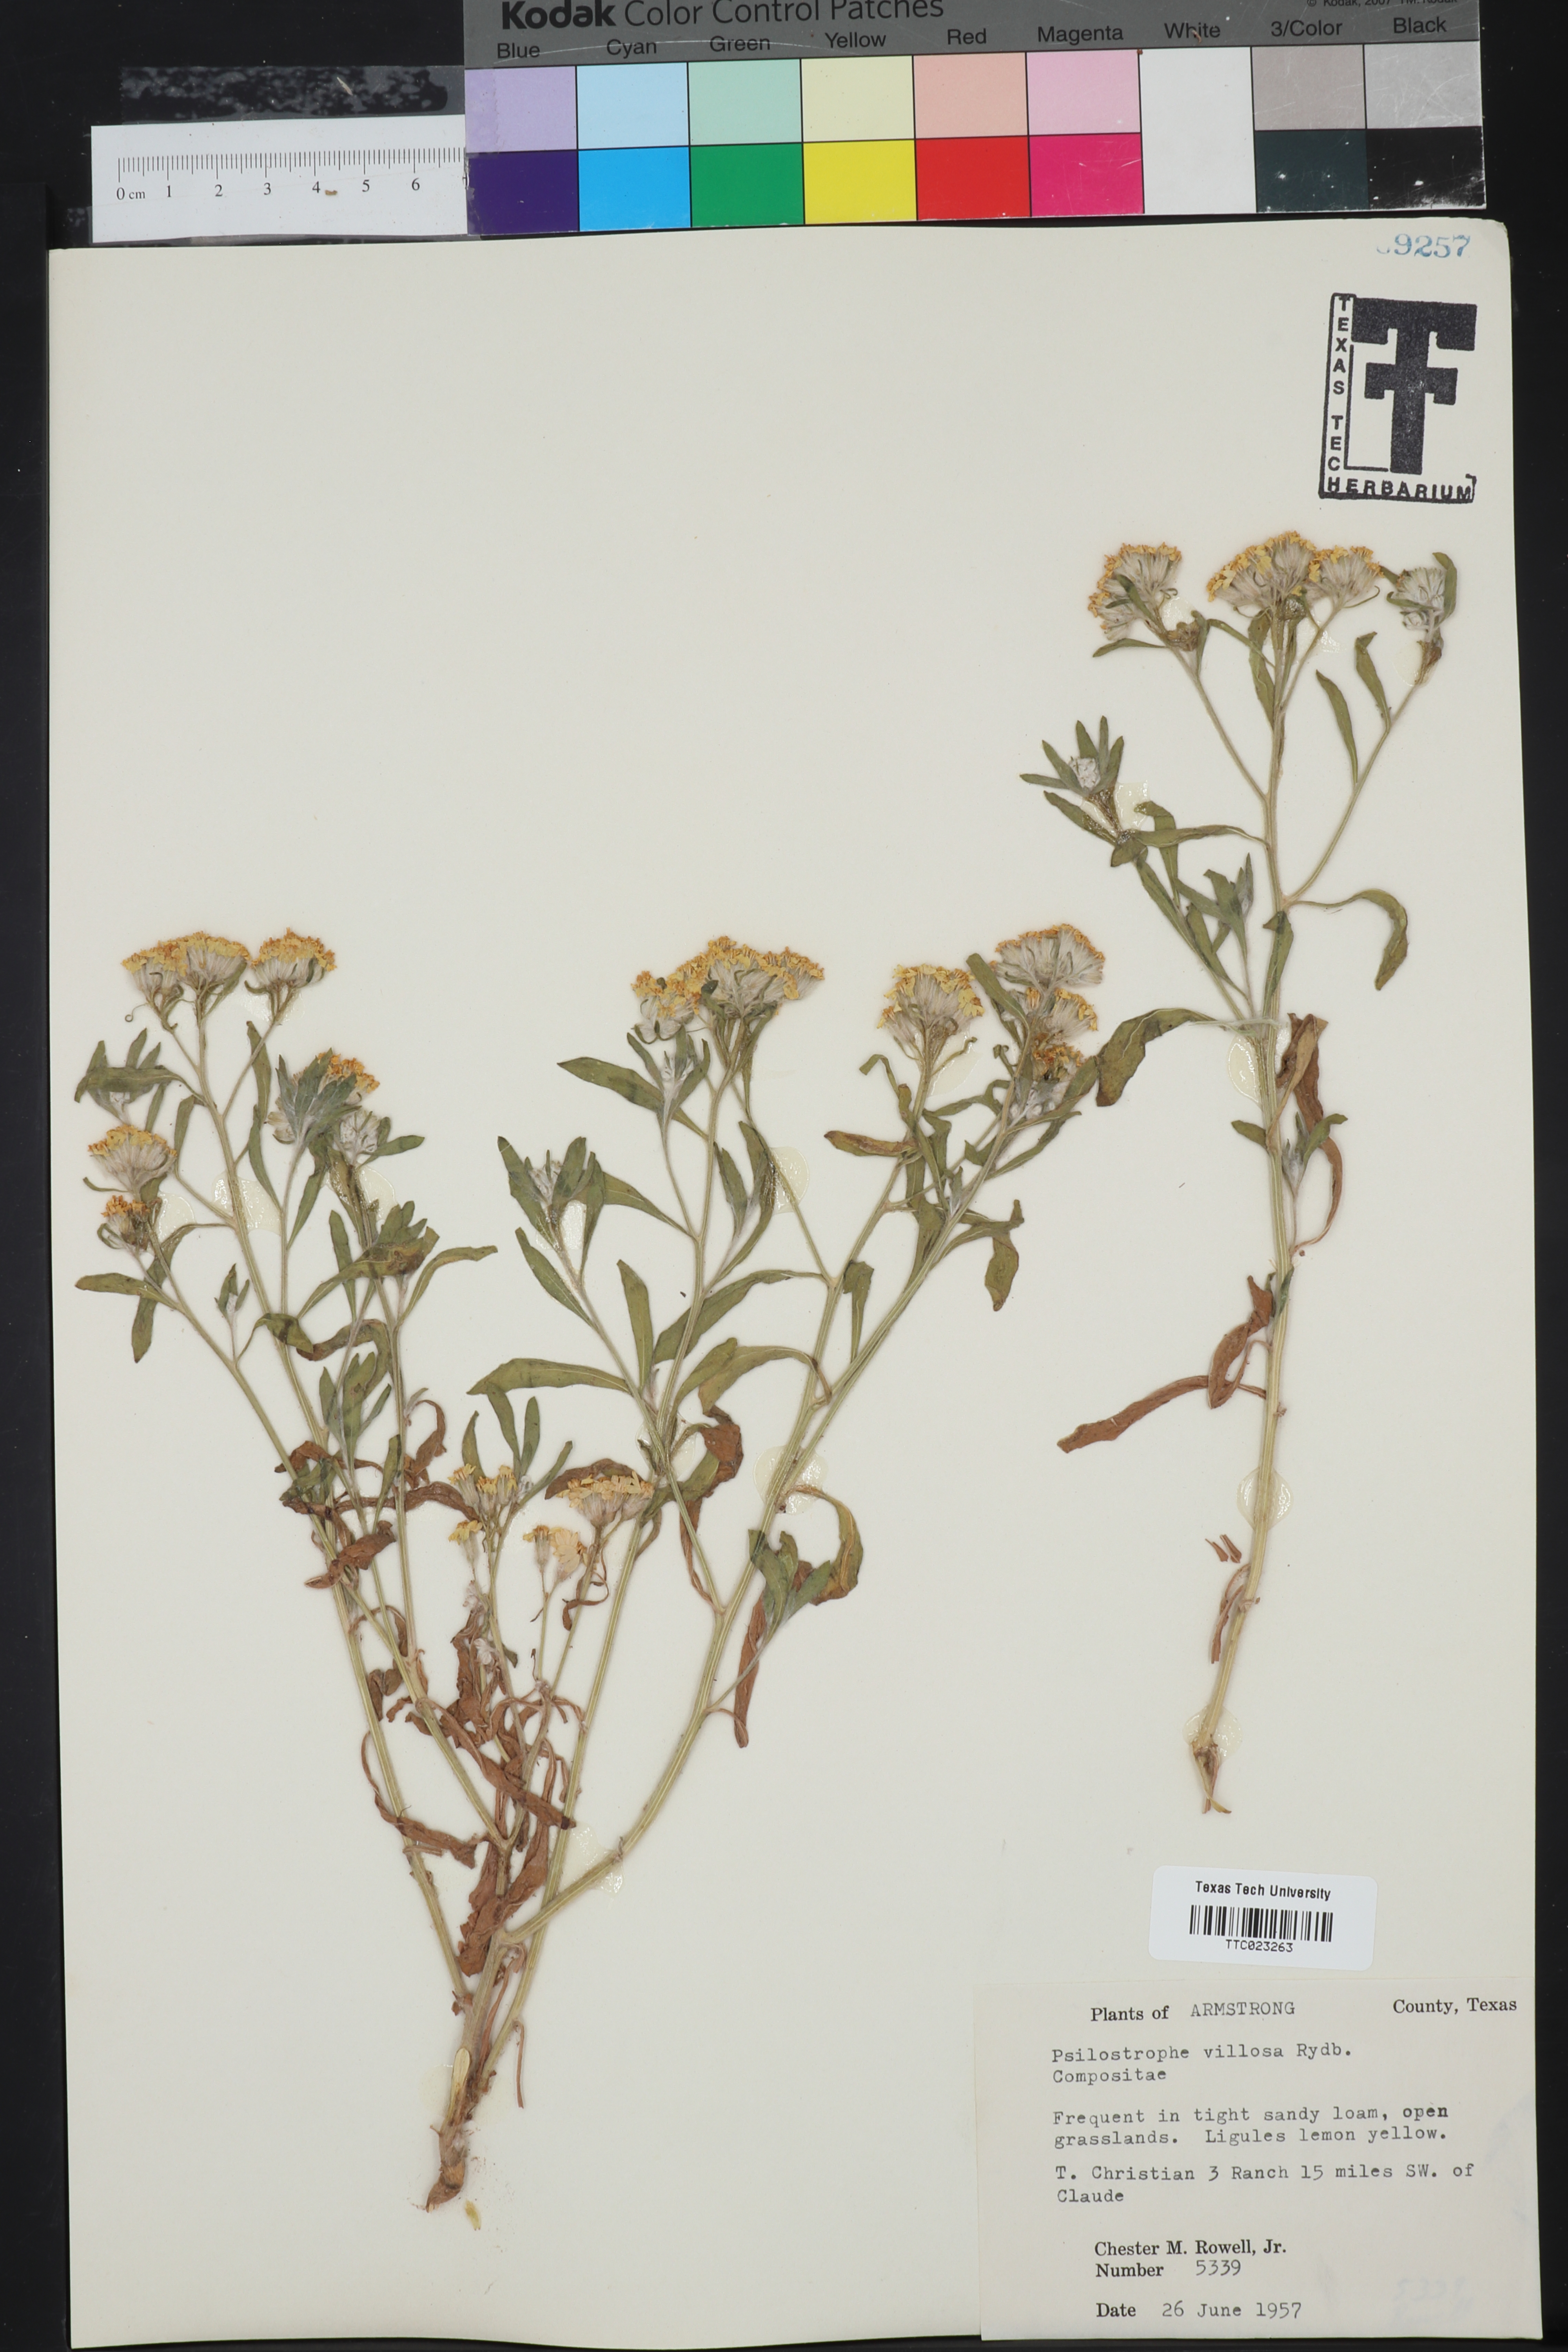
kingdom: Plantae
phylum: Tracheophyta
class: Magnoliopsida
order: Asterales
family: Asteraceae
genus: Psilostrophe
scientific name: Psilostrophe villosa
